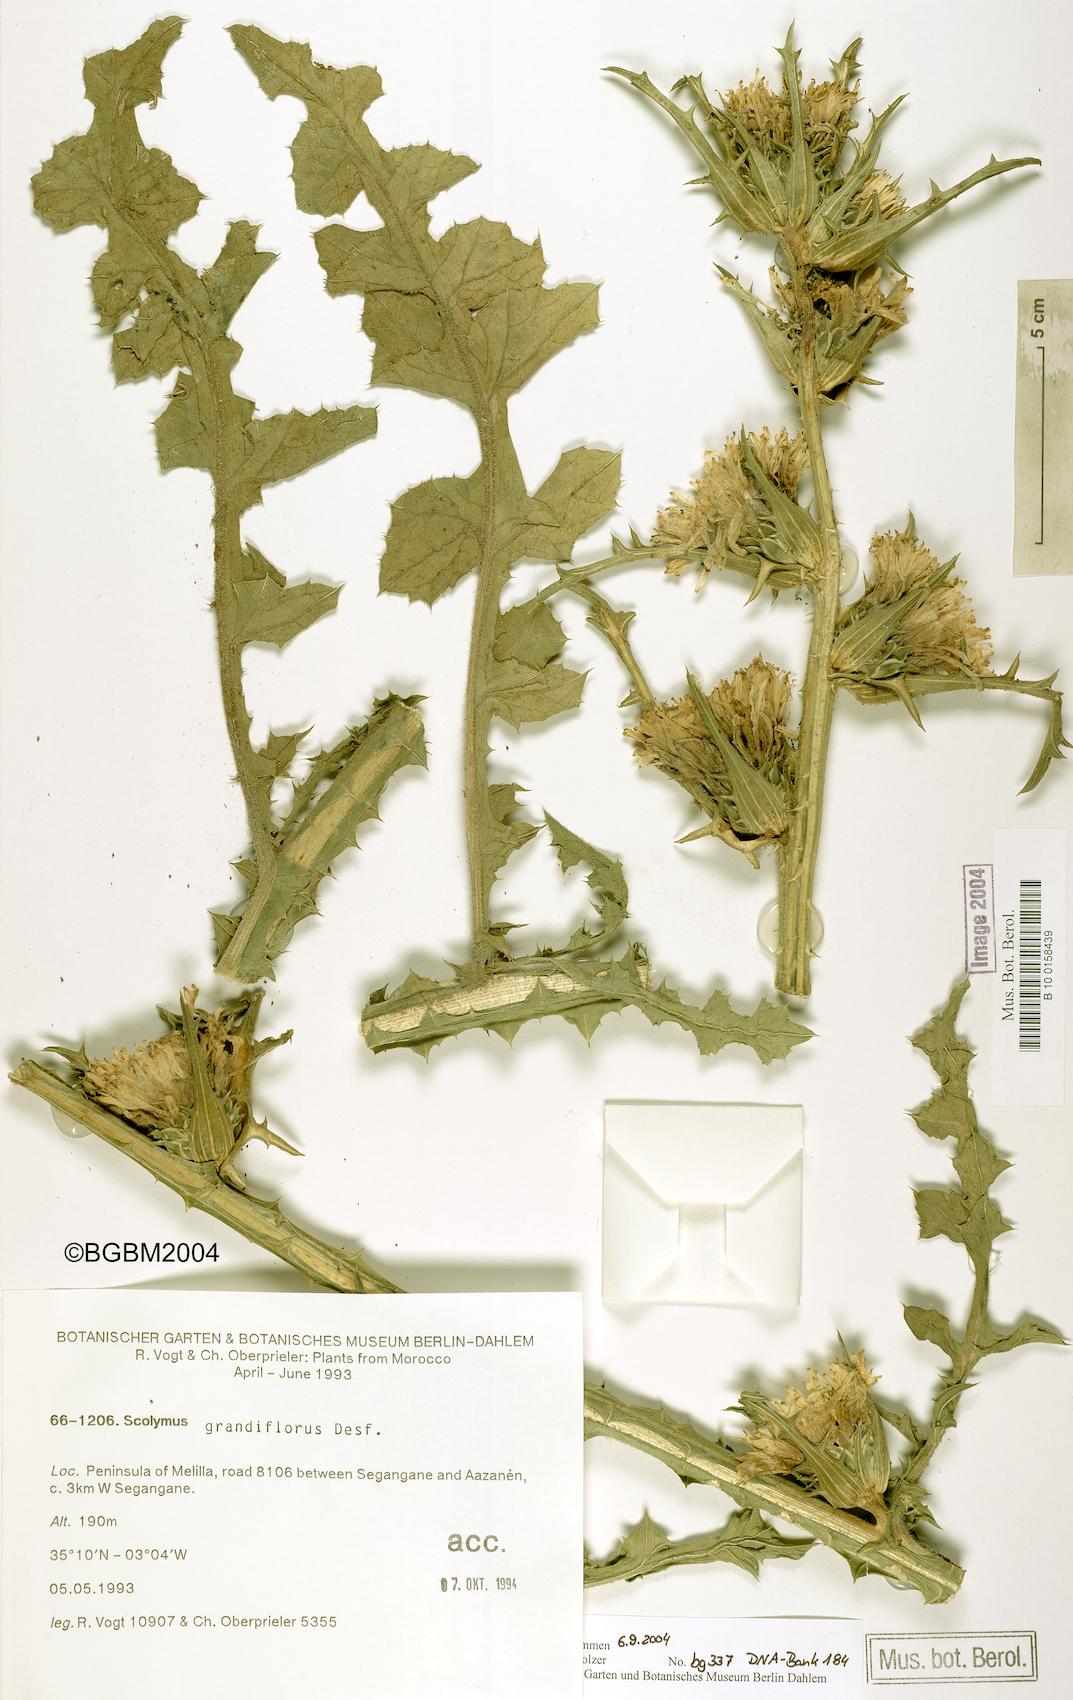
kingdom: Plantae
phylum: Tracheophyta
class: Magnoliopsida
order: Asterales
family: Asteraceae
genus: Scolymus
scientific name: Scolymus grandiflorus
